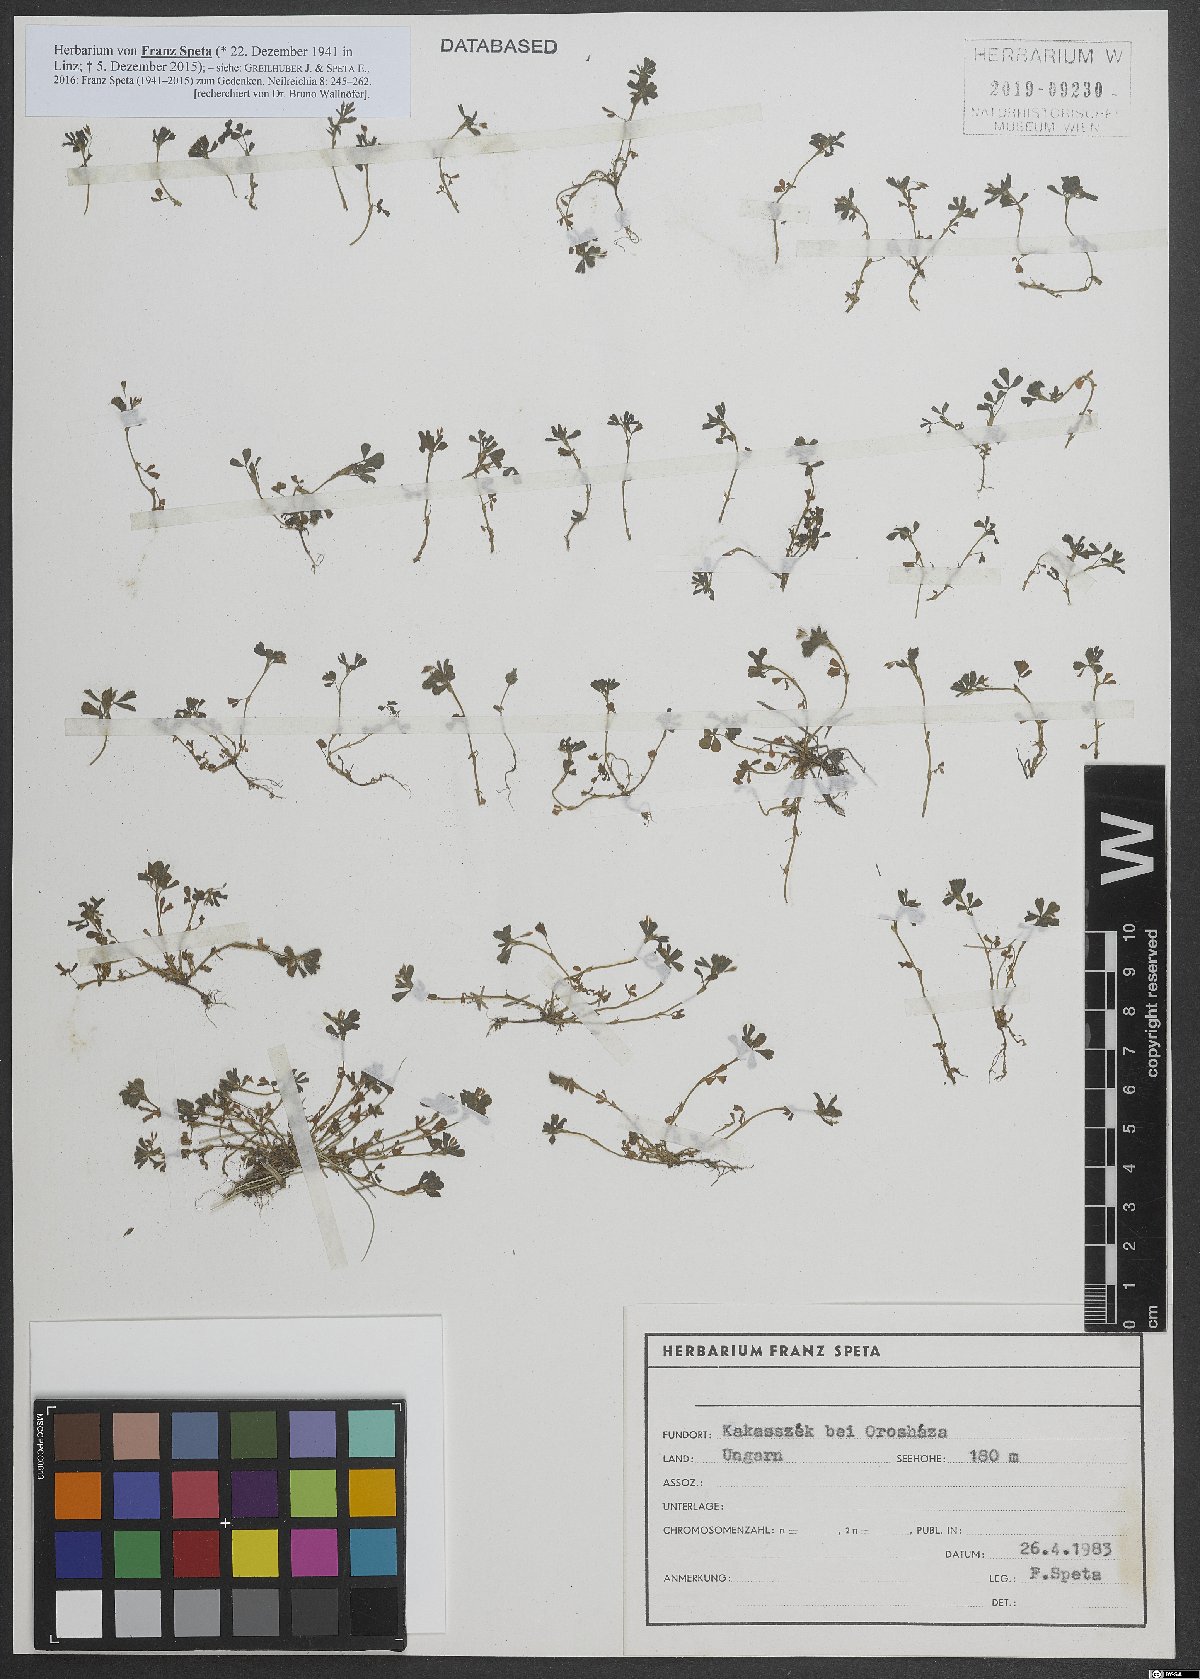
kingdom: Plantae
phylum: Tracheophyta
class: Magnoliopsida
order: Fabales
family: Fabaceae
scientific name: Fabaceae
